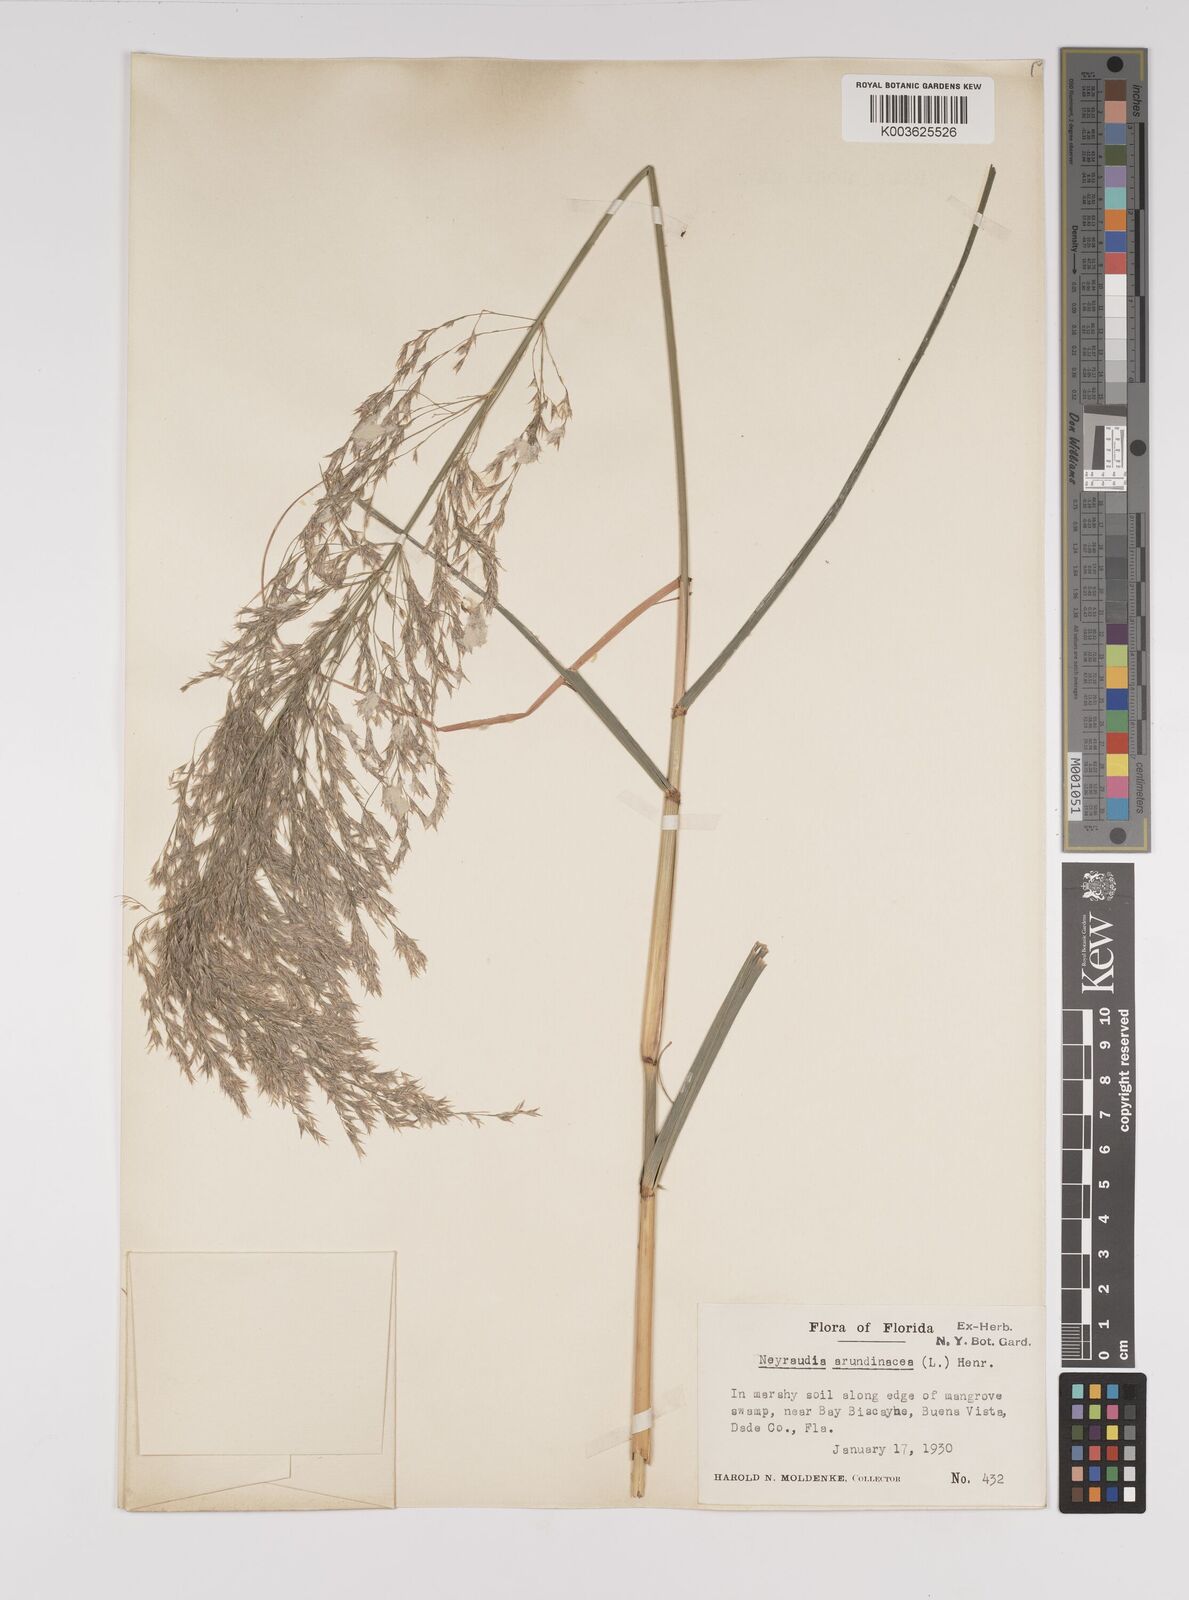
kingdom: Plantae
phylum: Tracheophyta
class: Liliopsida
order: Poales
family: Poaceae
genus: Neyraudia
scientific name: Neyraudia reynaudiana
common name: Silkreed
